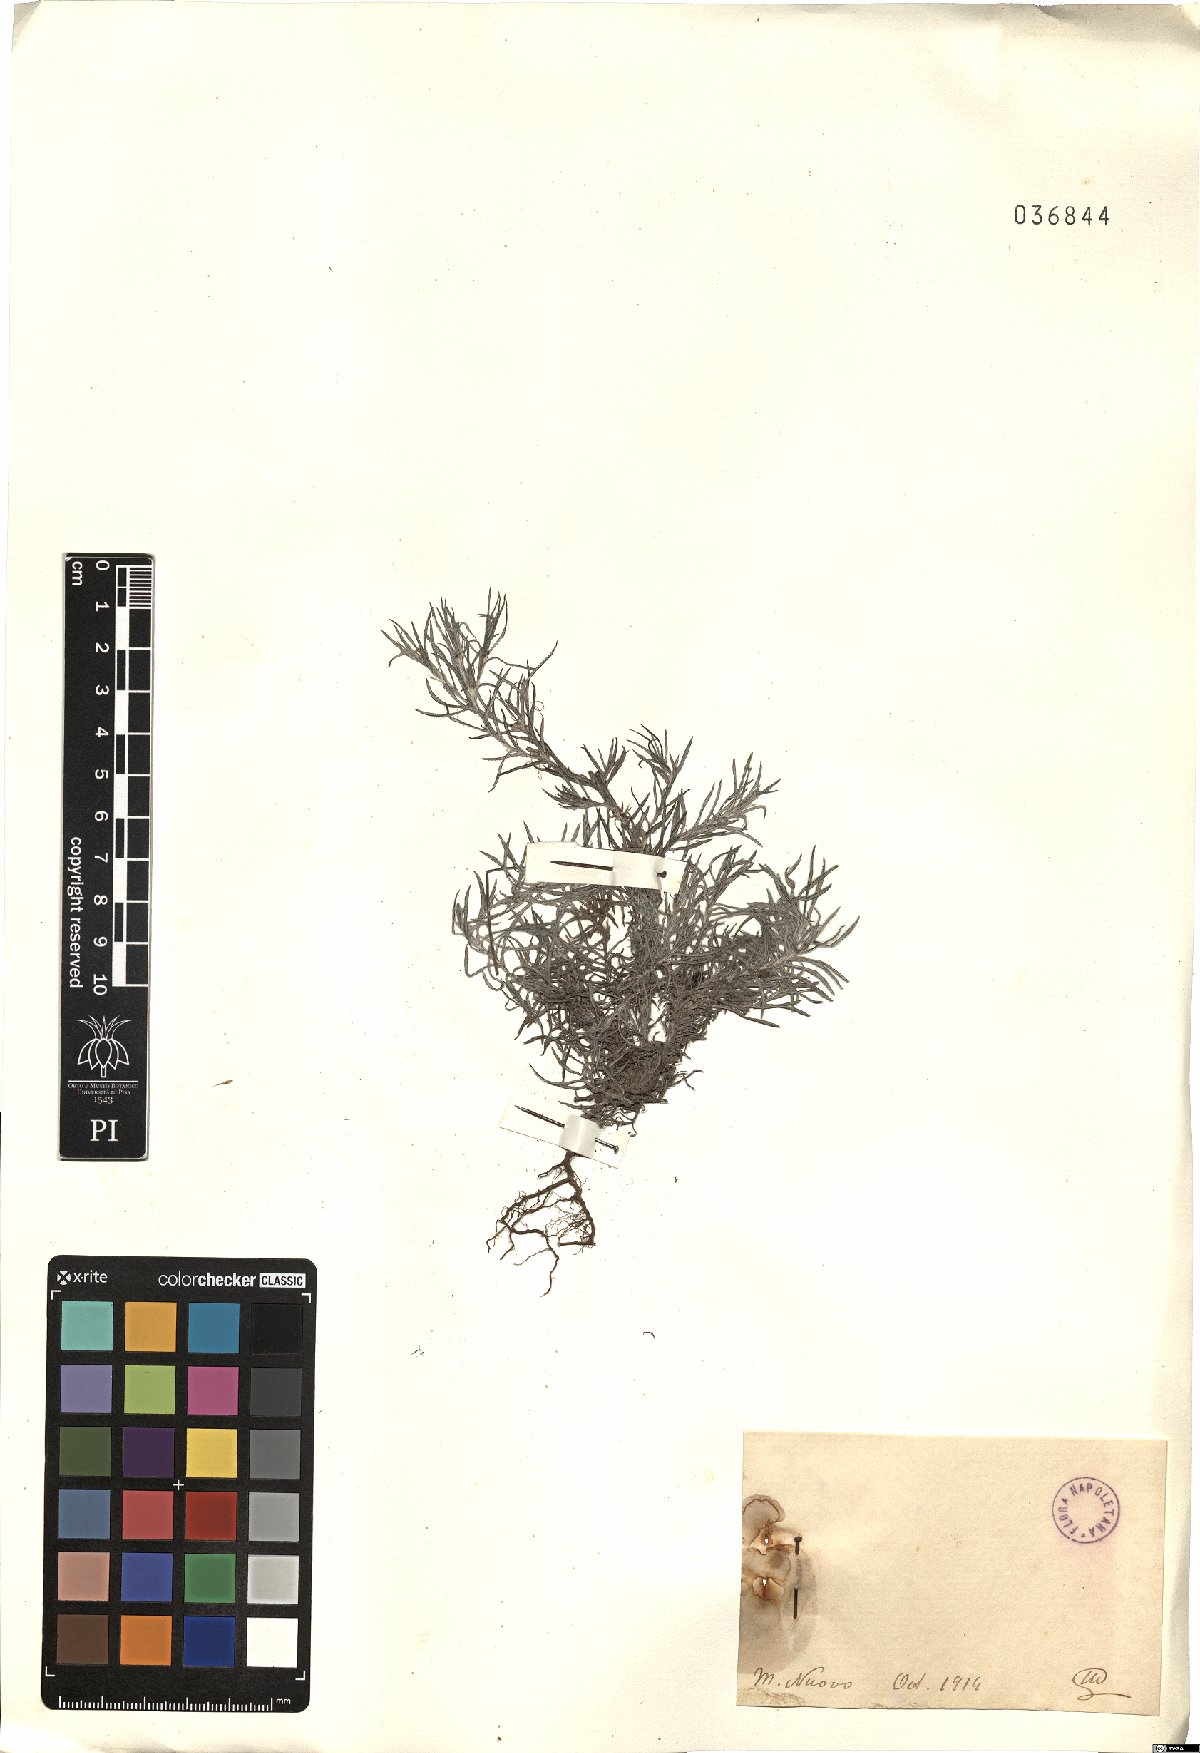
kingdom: Plantae
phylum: Tracheophyta
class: Magnoliopsida
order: Asterales
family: Asteraceae
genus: Filago
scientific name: Filago
